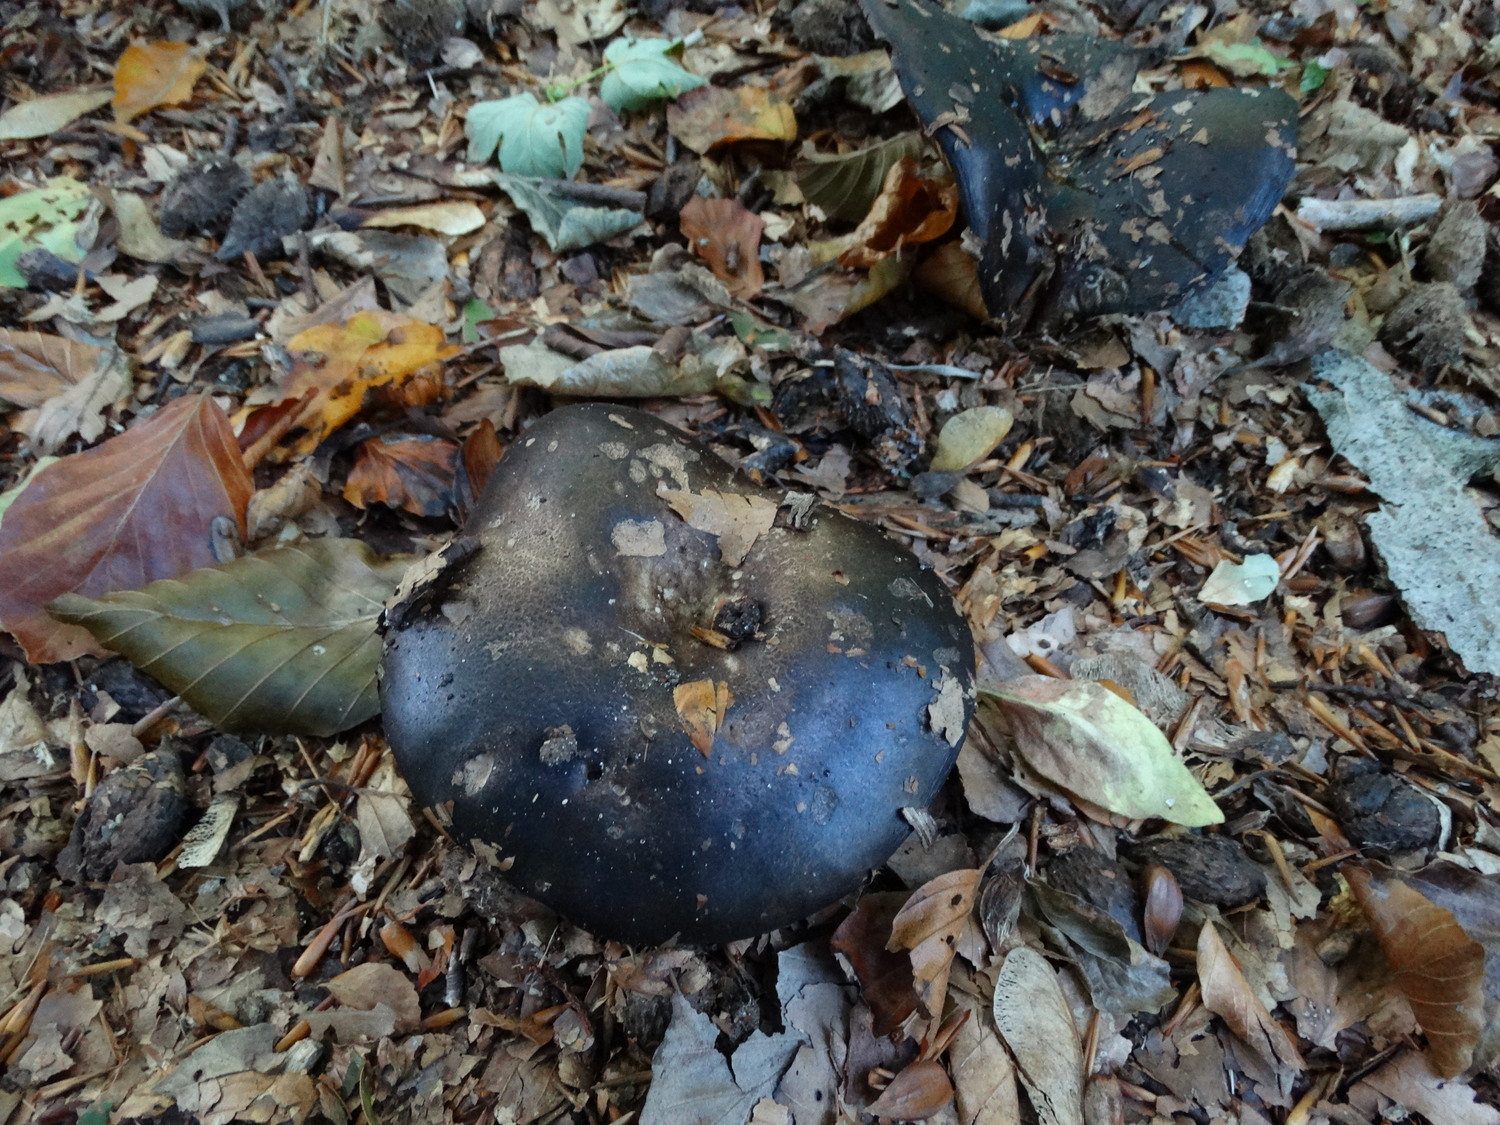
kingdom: Fungi
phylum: Basidiomycota
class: Agaricomycetes
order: Russulales
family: Russulaceae
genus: Russula
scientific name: Russula adusta
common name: sværtende skørhat
